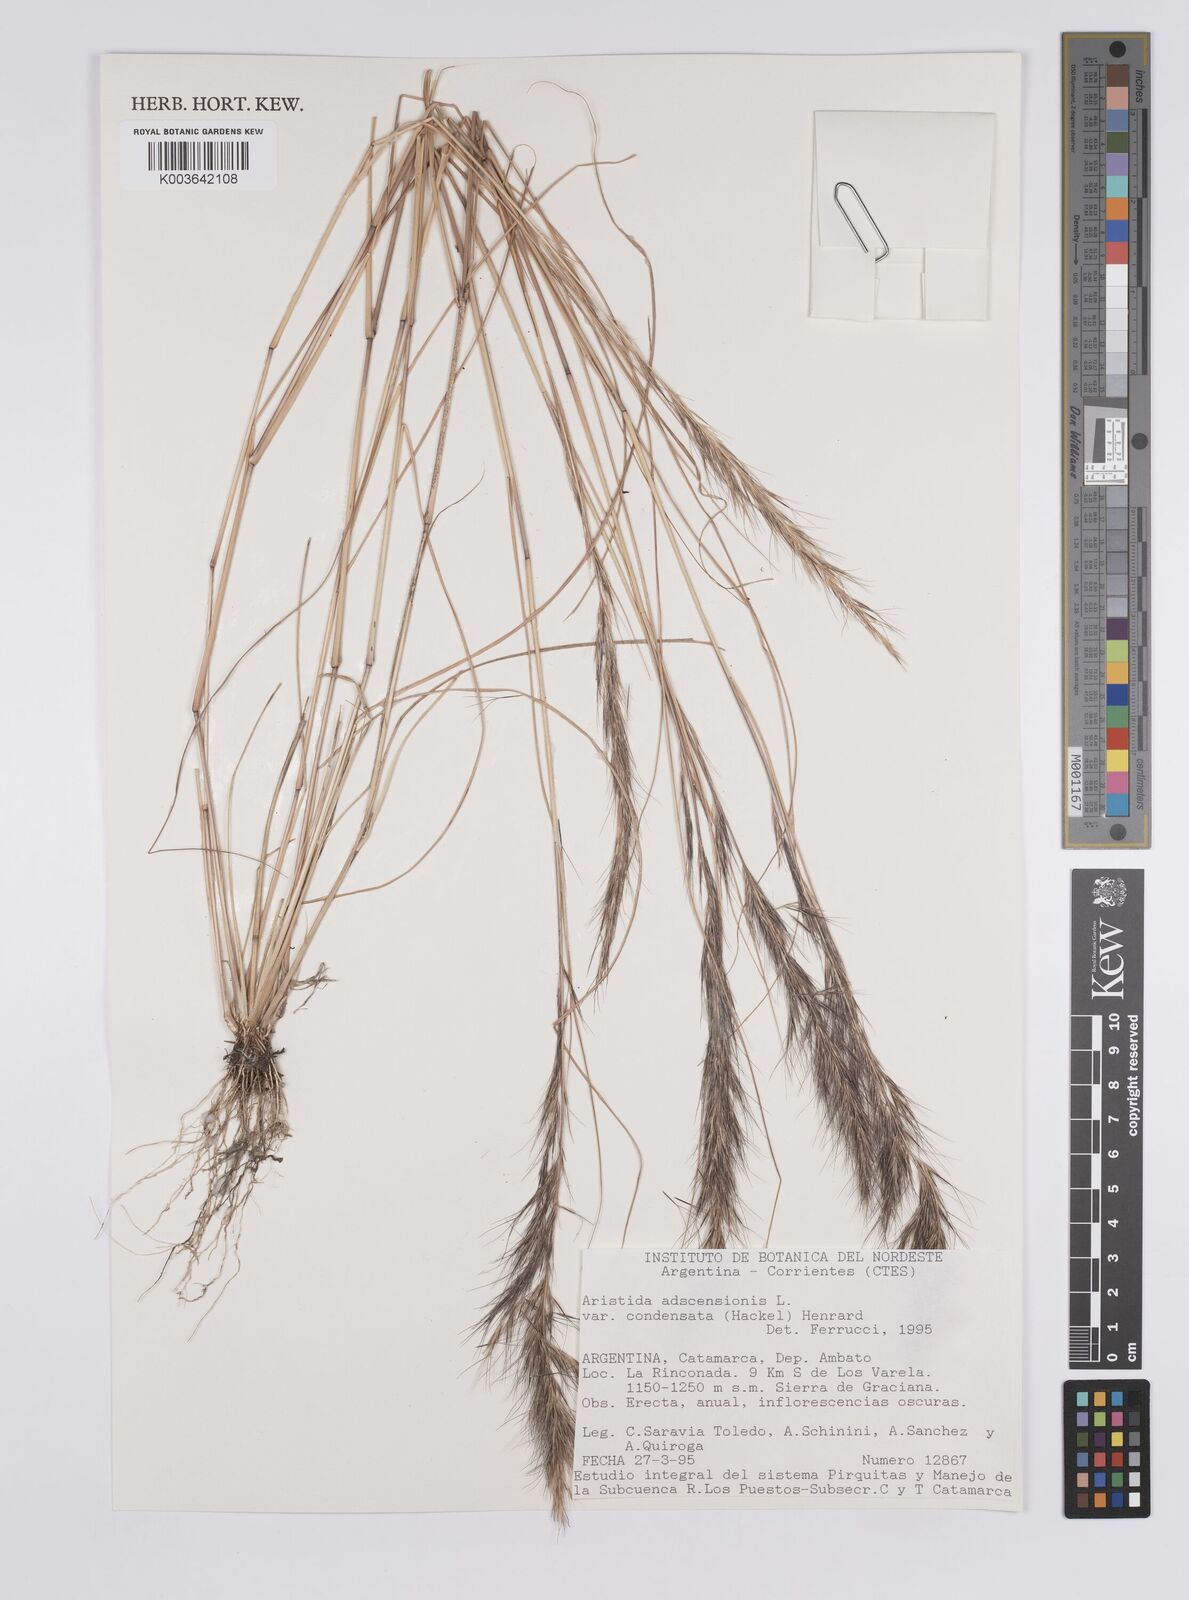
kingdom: Plantae
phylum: Tracheophyta
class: Liliopsida
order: Poales
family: Poaceae
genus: Aristida
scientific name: Aristida adscensionis
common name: Sixweeks threeawn
